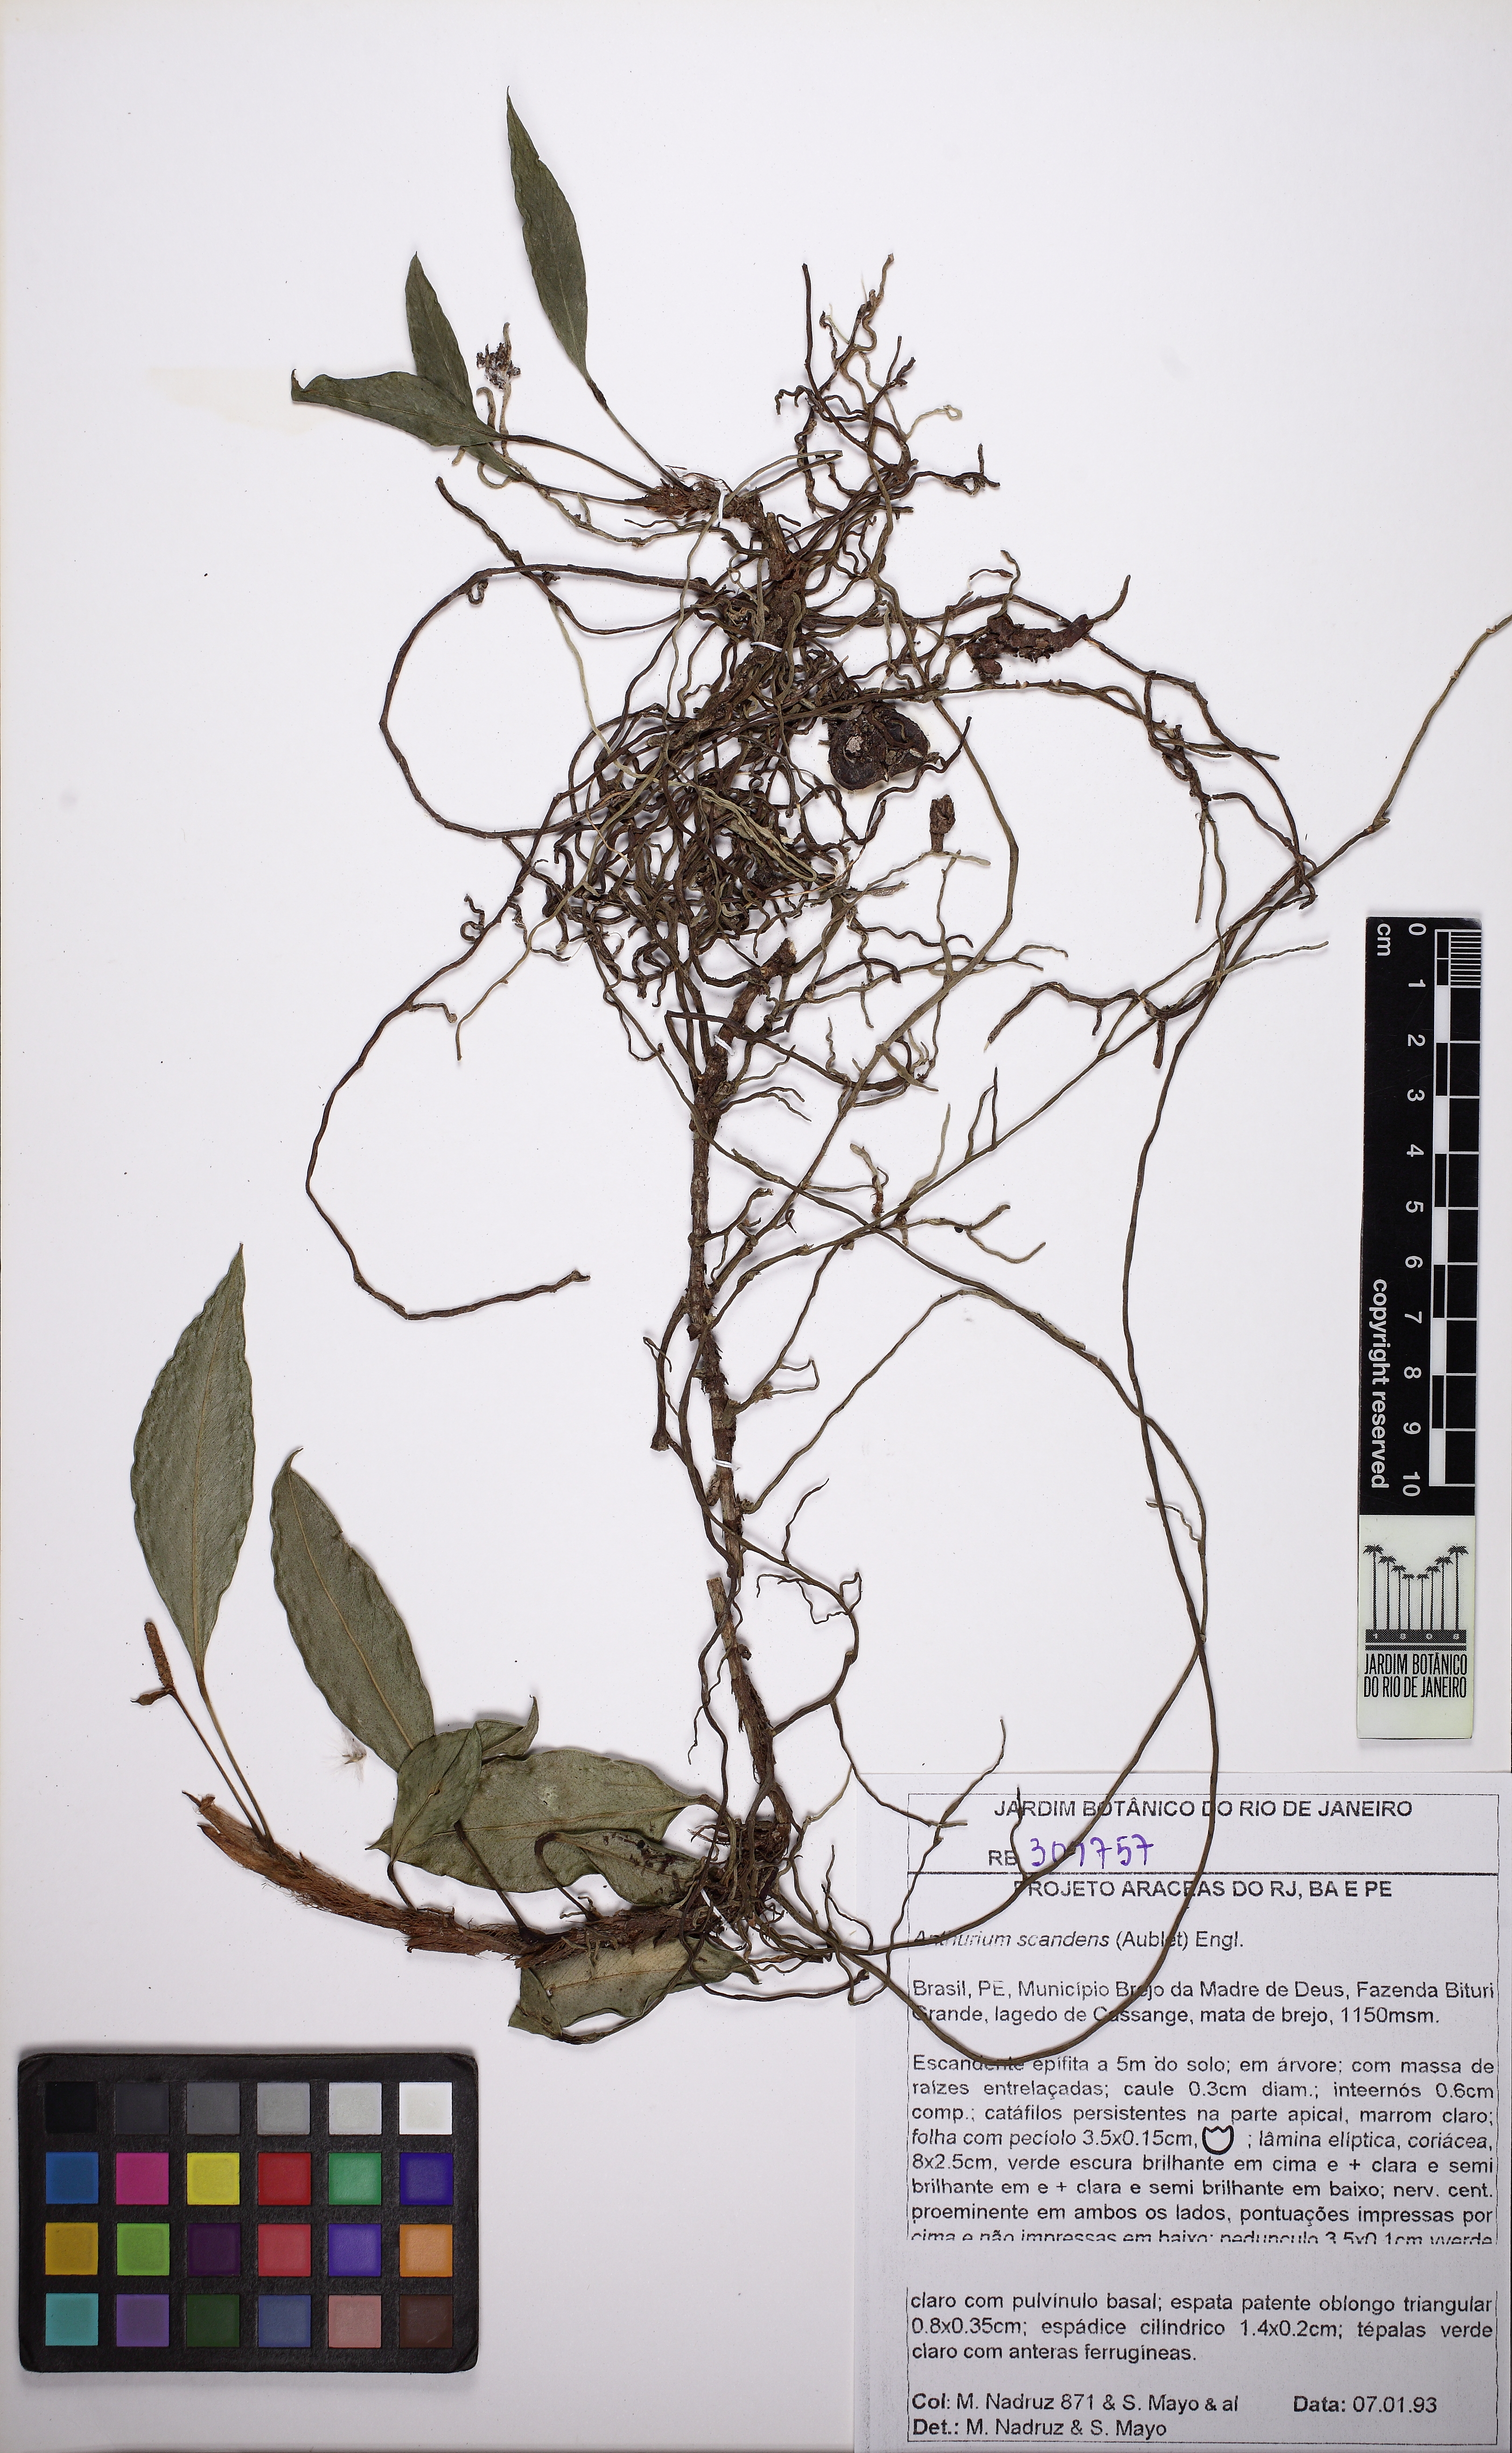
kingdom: Plantae
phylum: Tracheophyta
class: Liliopsida
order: Alismatales
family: Araceae
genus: Anthurium
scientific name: Anthurium scandens
